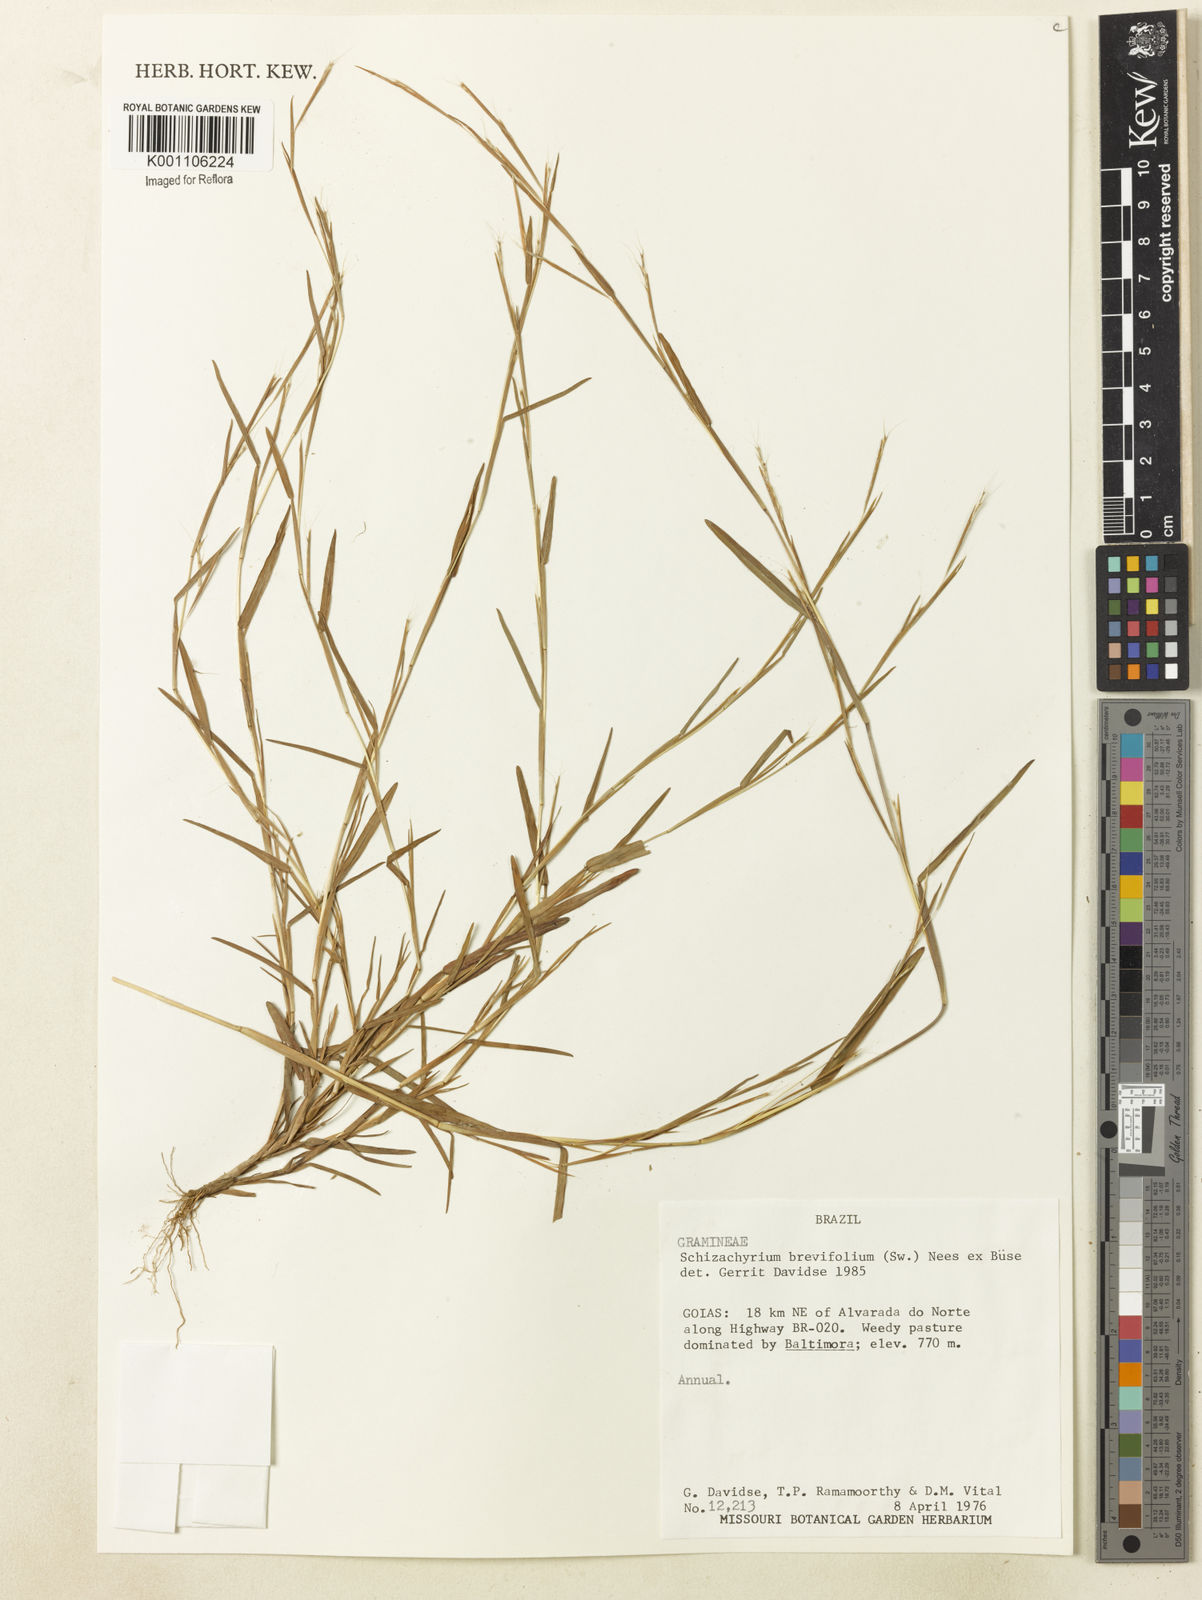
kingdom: Plantae
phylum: Tracheophyta
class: Liliopsida
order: Poales
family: Poaceae
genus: Schizachyrium
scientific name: Schizachyrium brevifolium
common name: Serillo dulce
